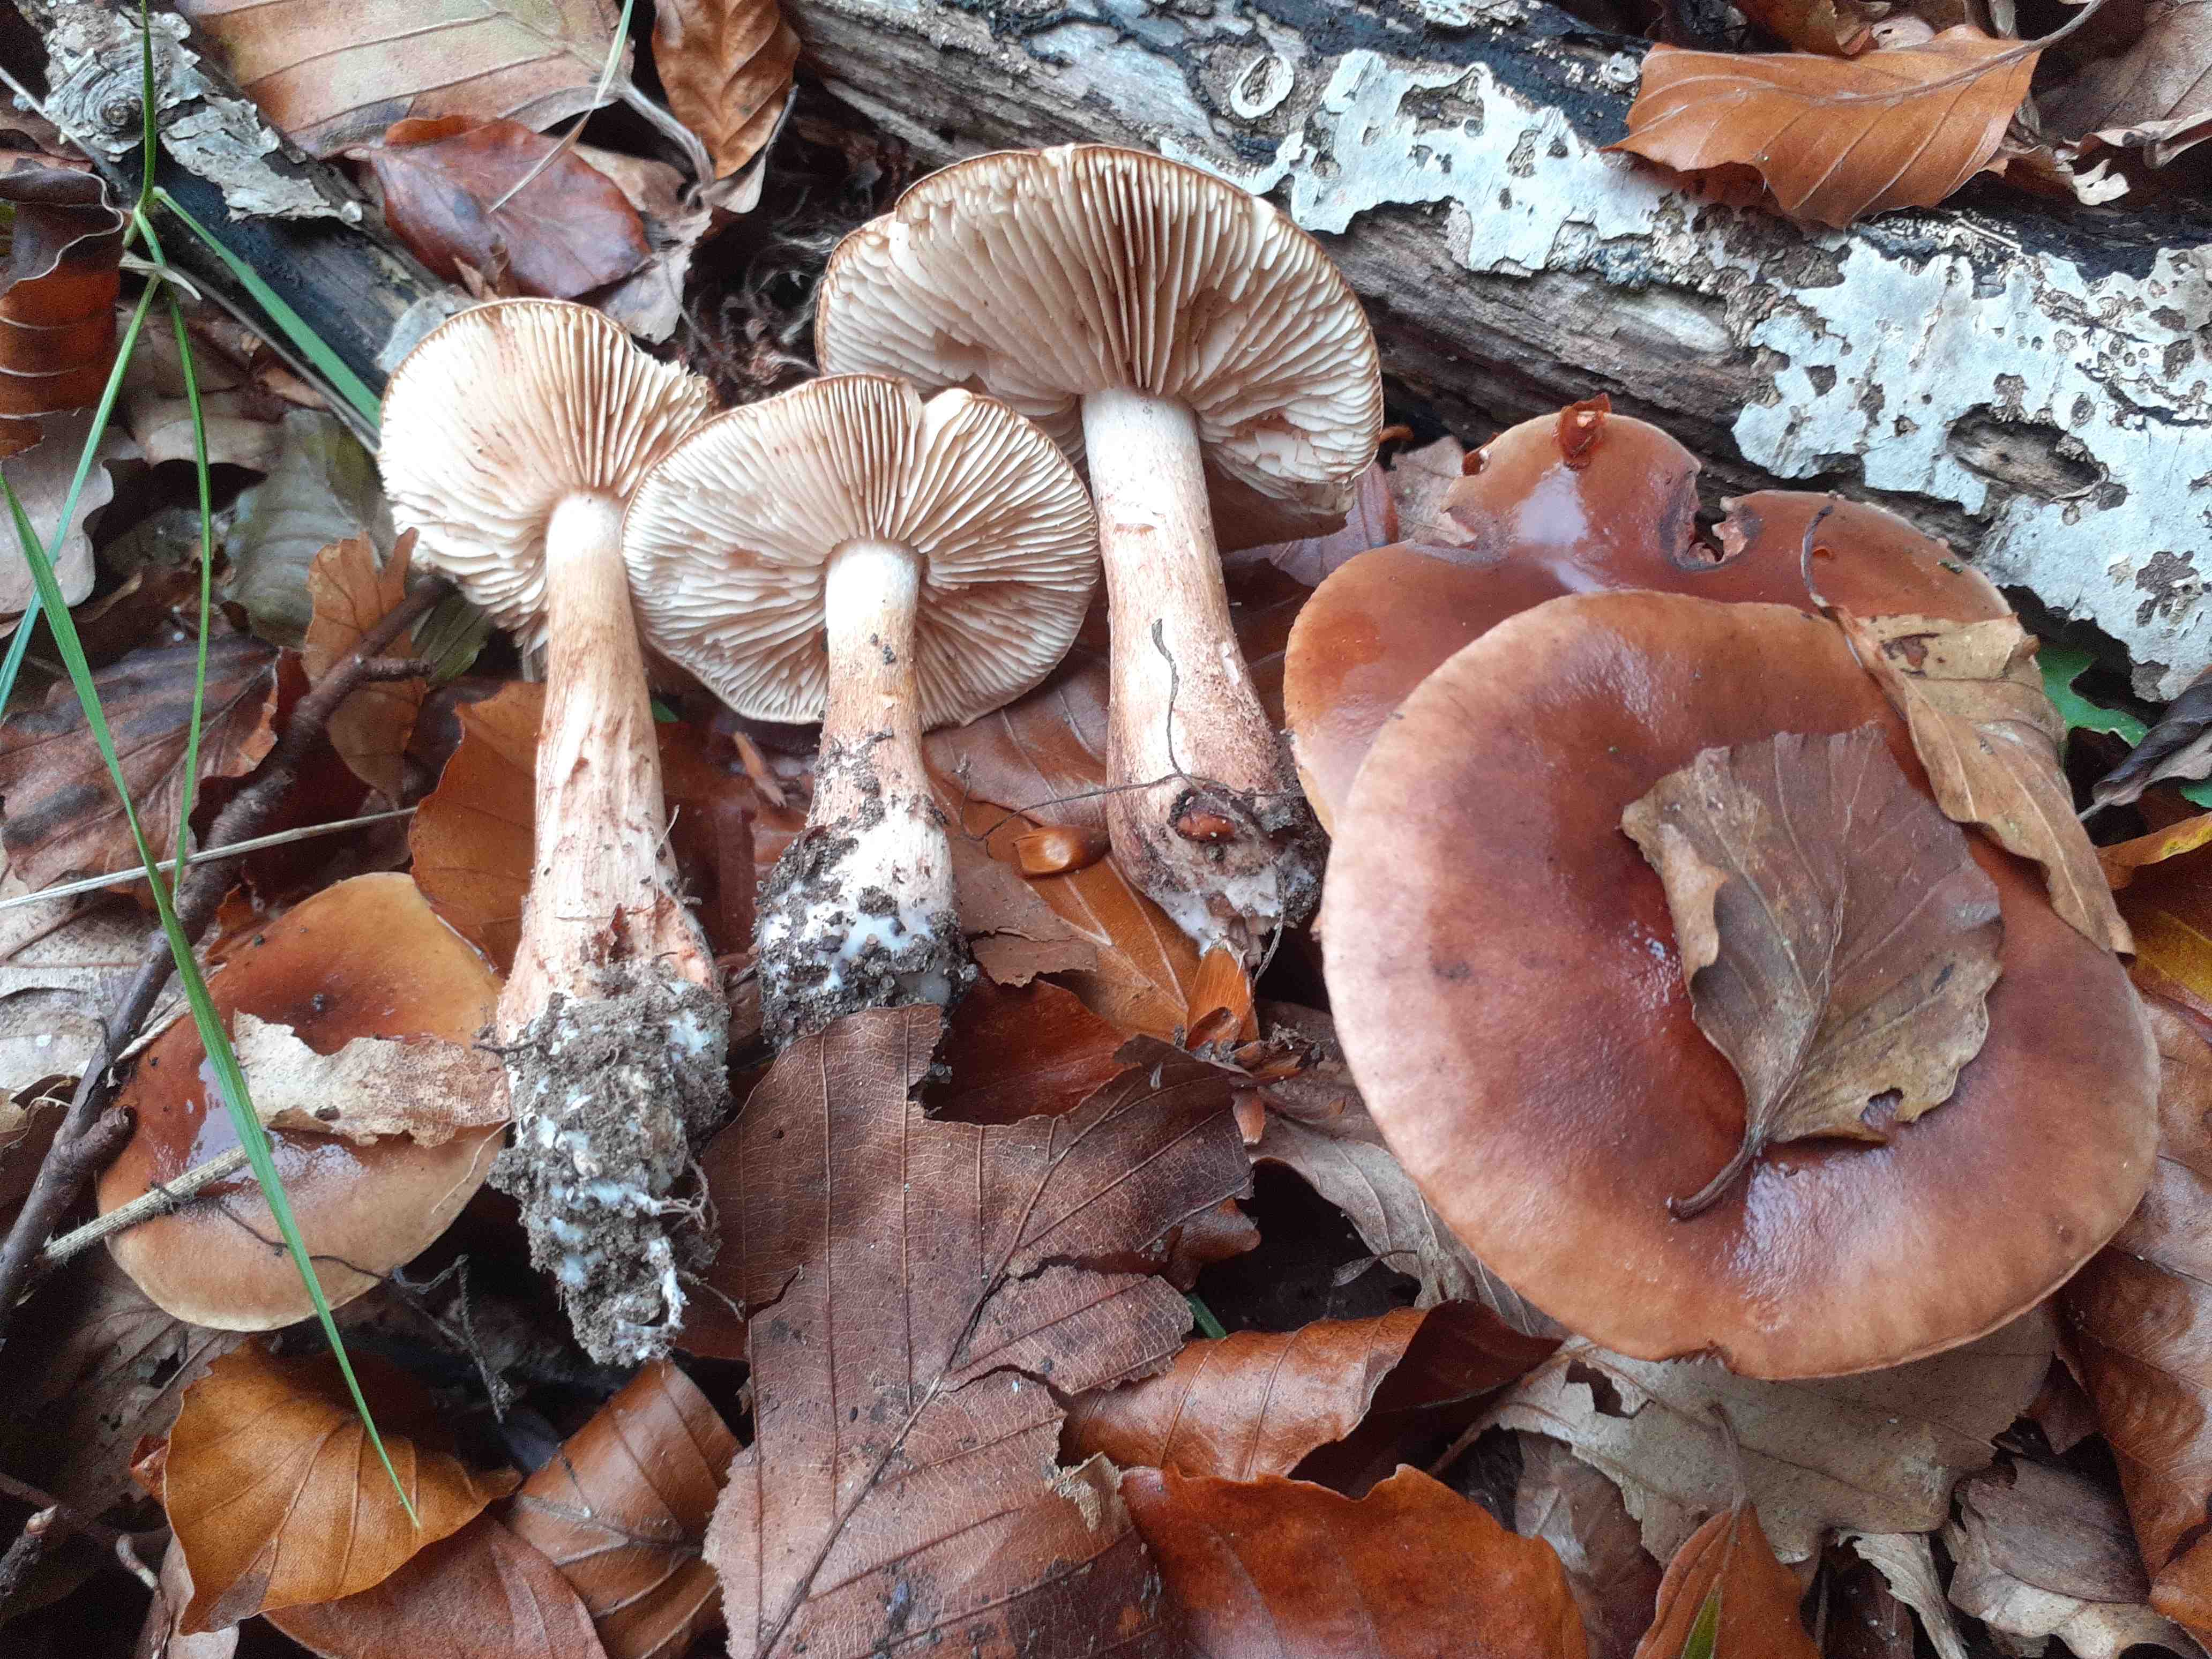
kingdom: Fungi
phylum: Basidiomycota
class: Agaricomycetes
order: Agaricales
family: Tricholomataceae
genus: Tricholoma
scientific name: Tricholoma ustale
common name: sveden ridderhat
